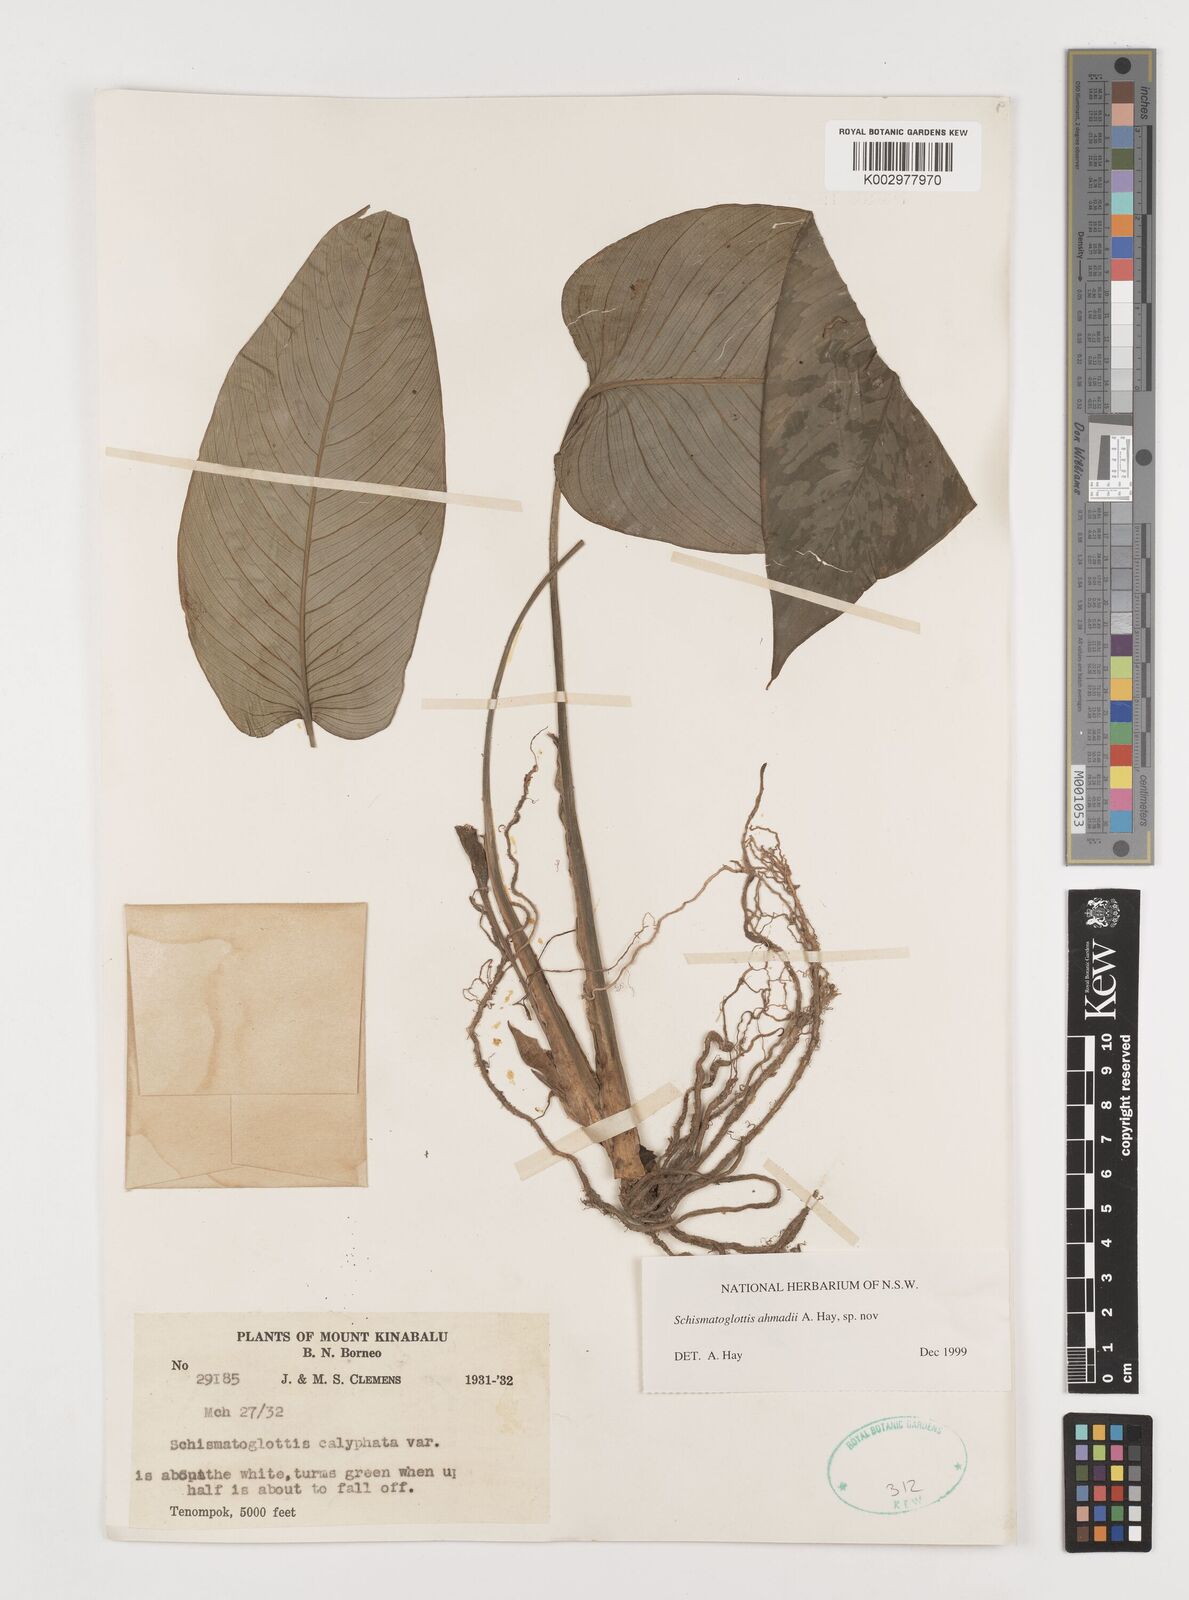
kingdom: Plantae
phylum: Tracheophyta
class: Liliopsida
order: Alismatales
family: Araceae
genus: Schismatoglottis
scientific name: Schismatoglottis ahmadii
